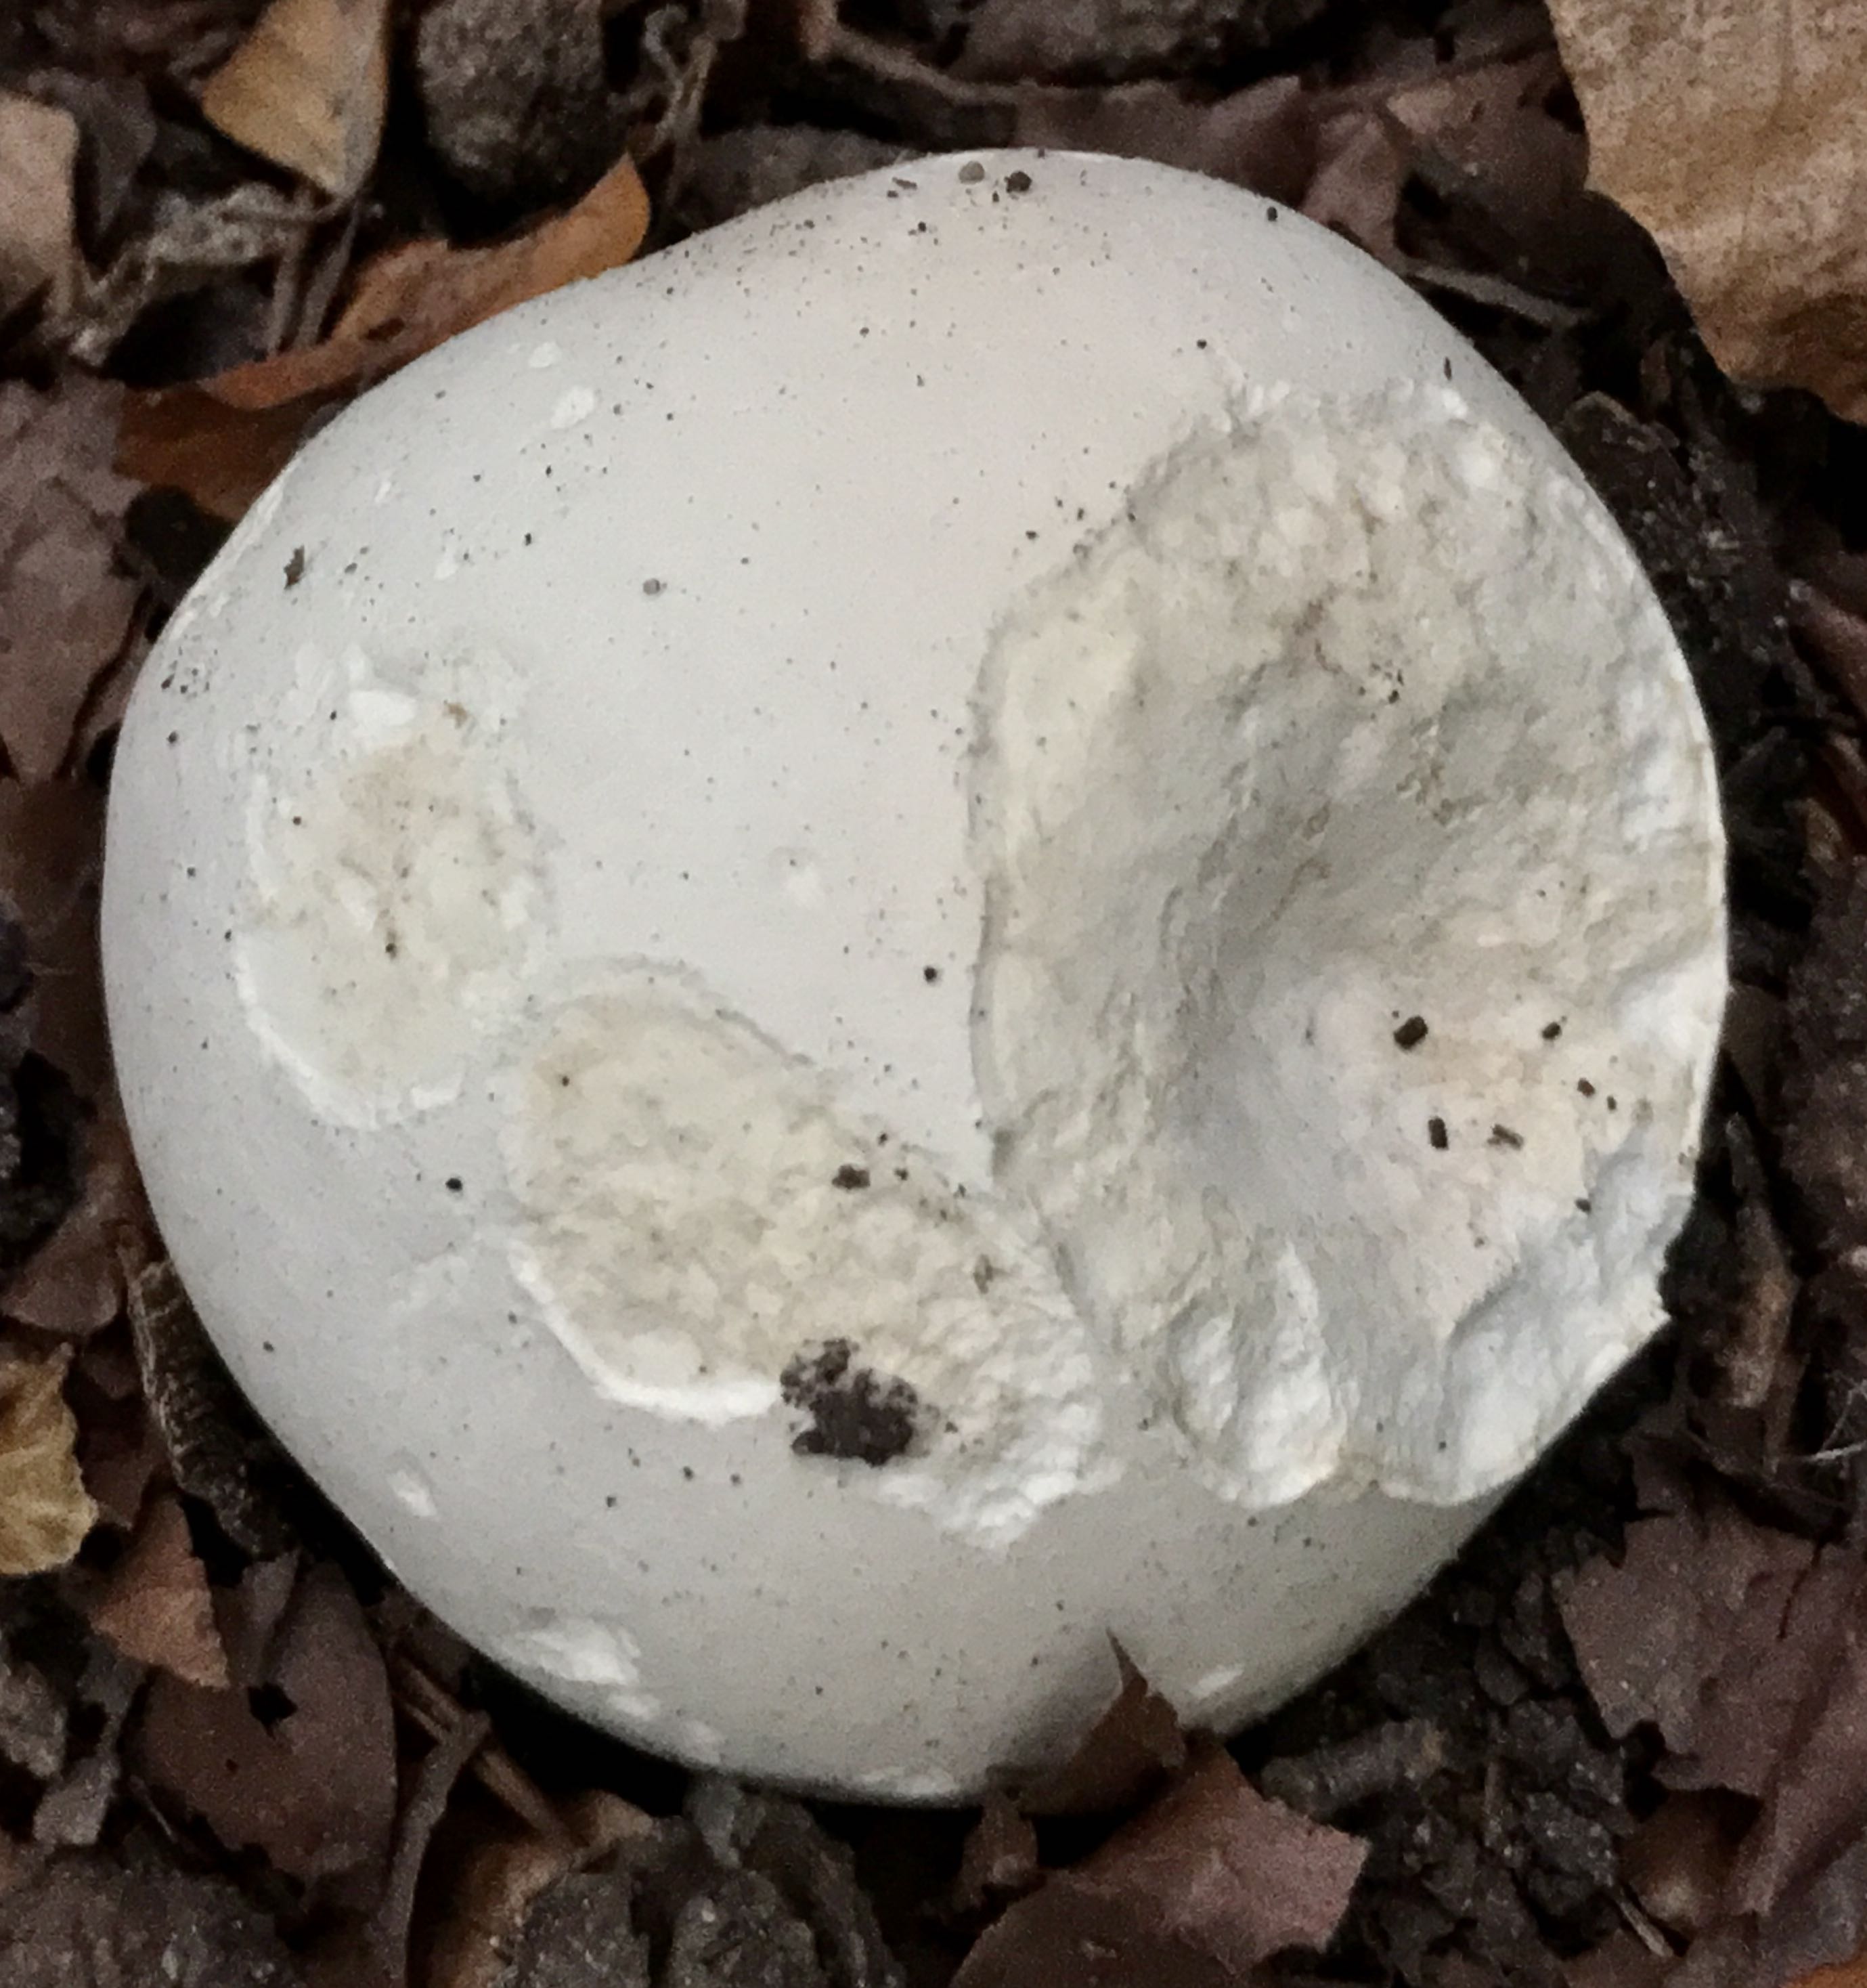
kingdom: Fungi
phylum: Basidiomycota
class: Agaricomycetes
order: Agaricales
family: Lycoperdaceae
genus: Calvatia
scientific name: Calvatia gigantea
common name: kæmpestøvbold
